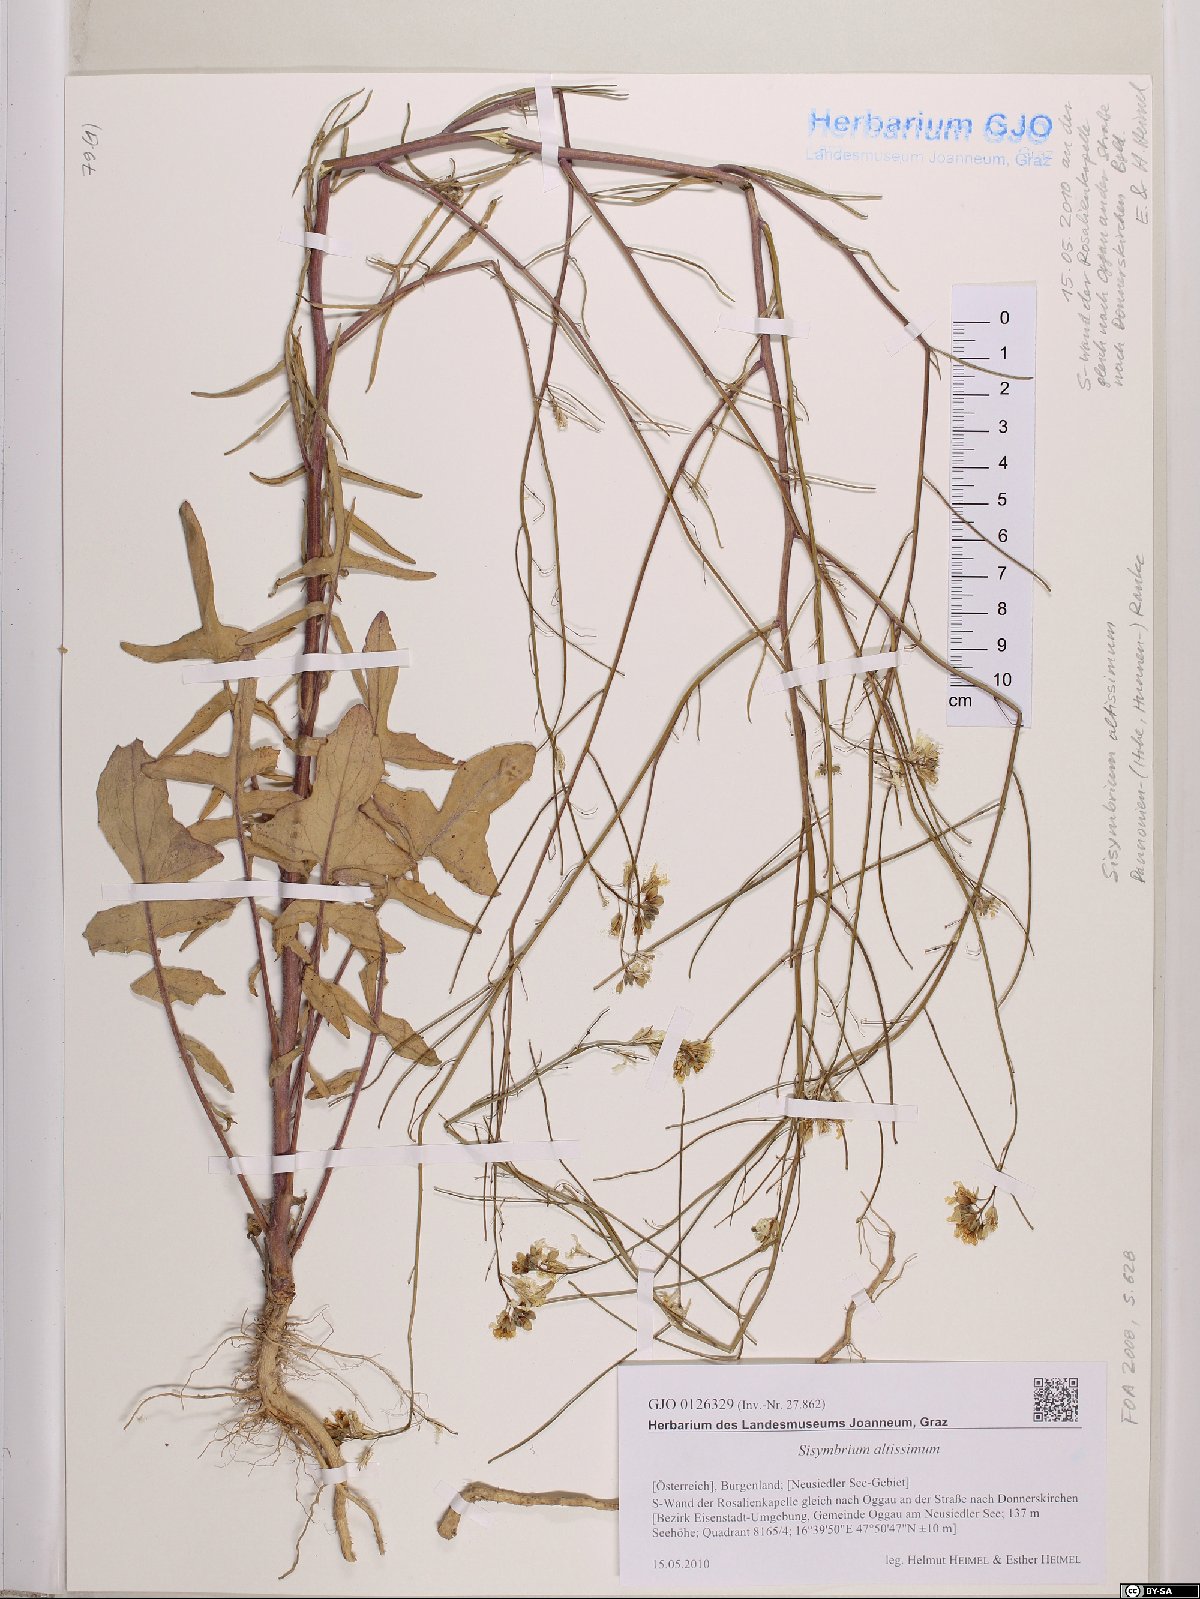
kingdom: Plantae
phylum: Tracheophyta
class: Magnoliopsida
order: Brassicales
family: Brassicaceae
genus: Sisymbrium
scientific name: Sisymbrium altissimum
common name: Tall rocket
